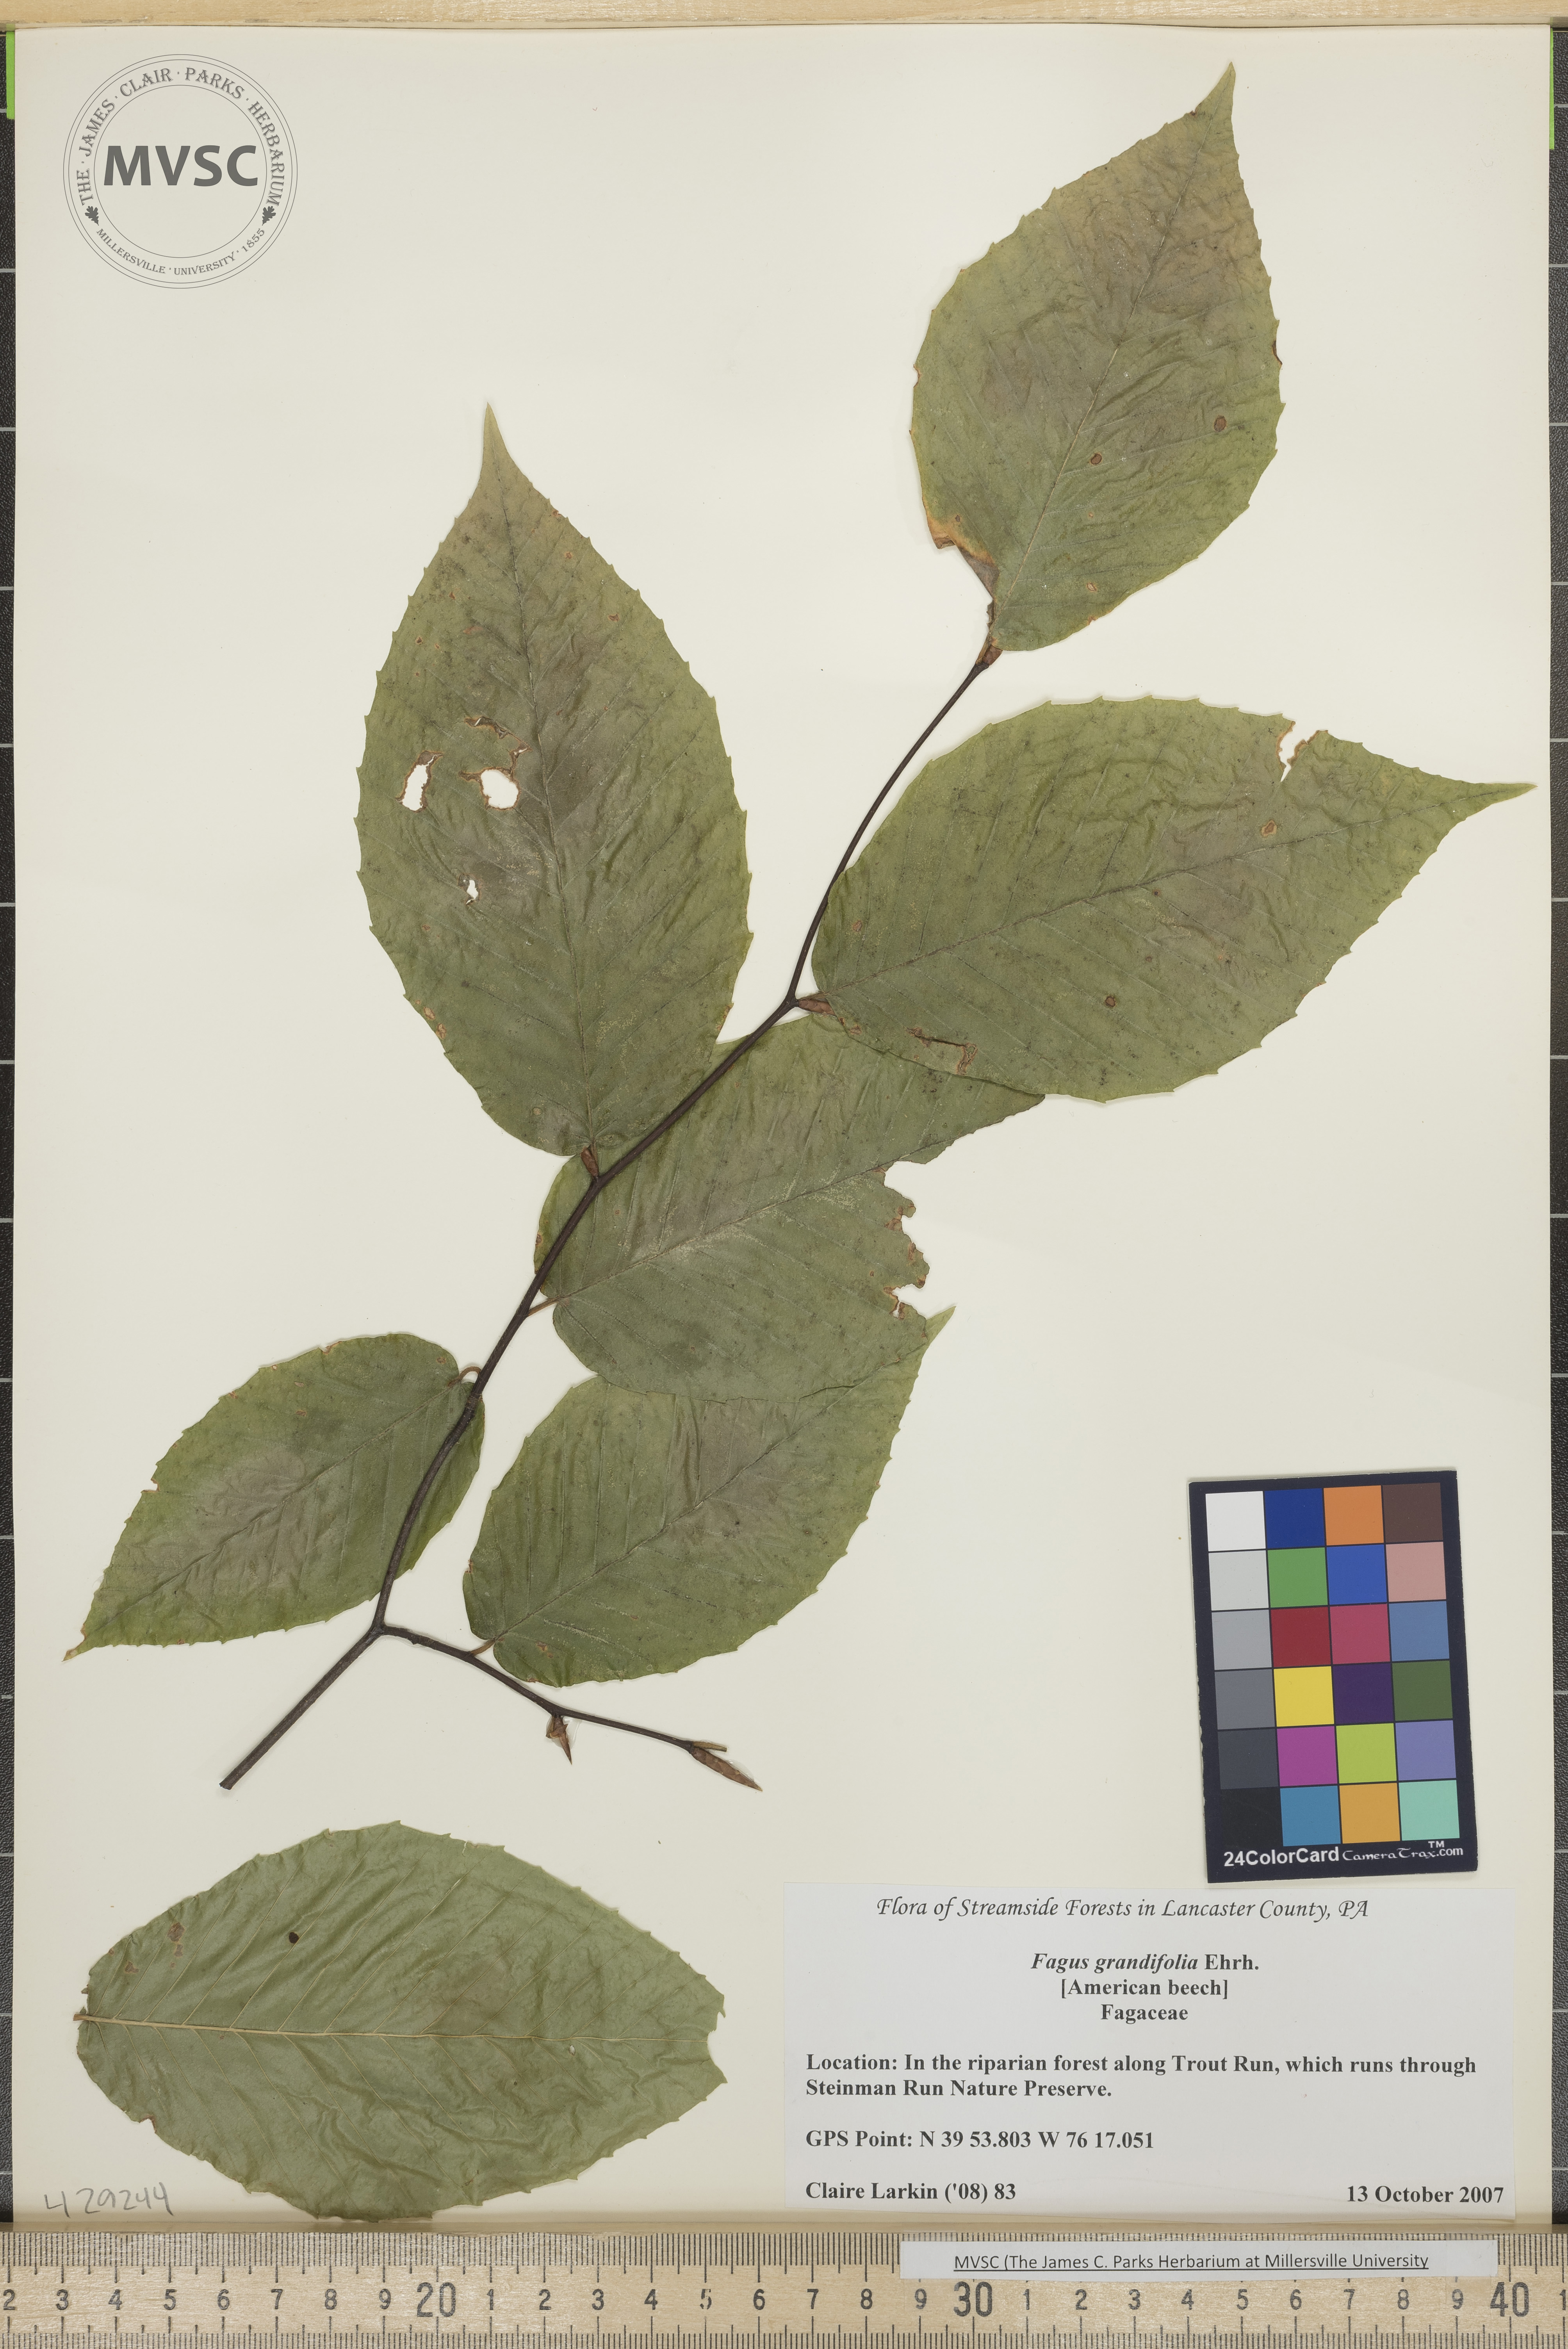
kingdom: Plantae
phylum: Tracheophyta
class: Magnoliopsida
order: Fagales
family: Fagaceae
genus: Fagus
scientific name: Fagus grandifolia
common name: Beech
